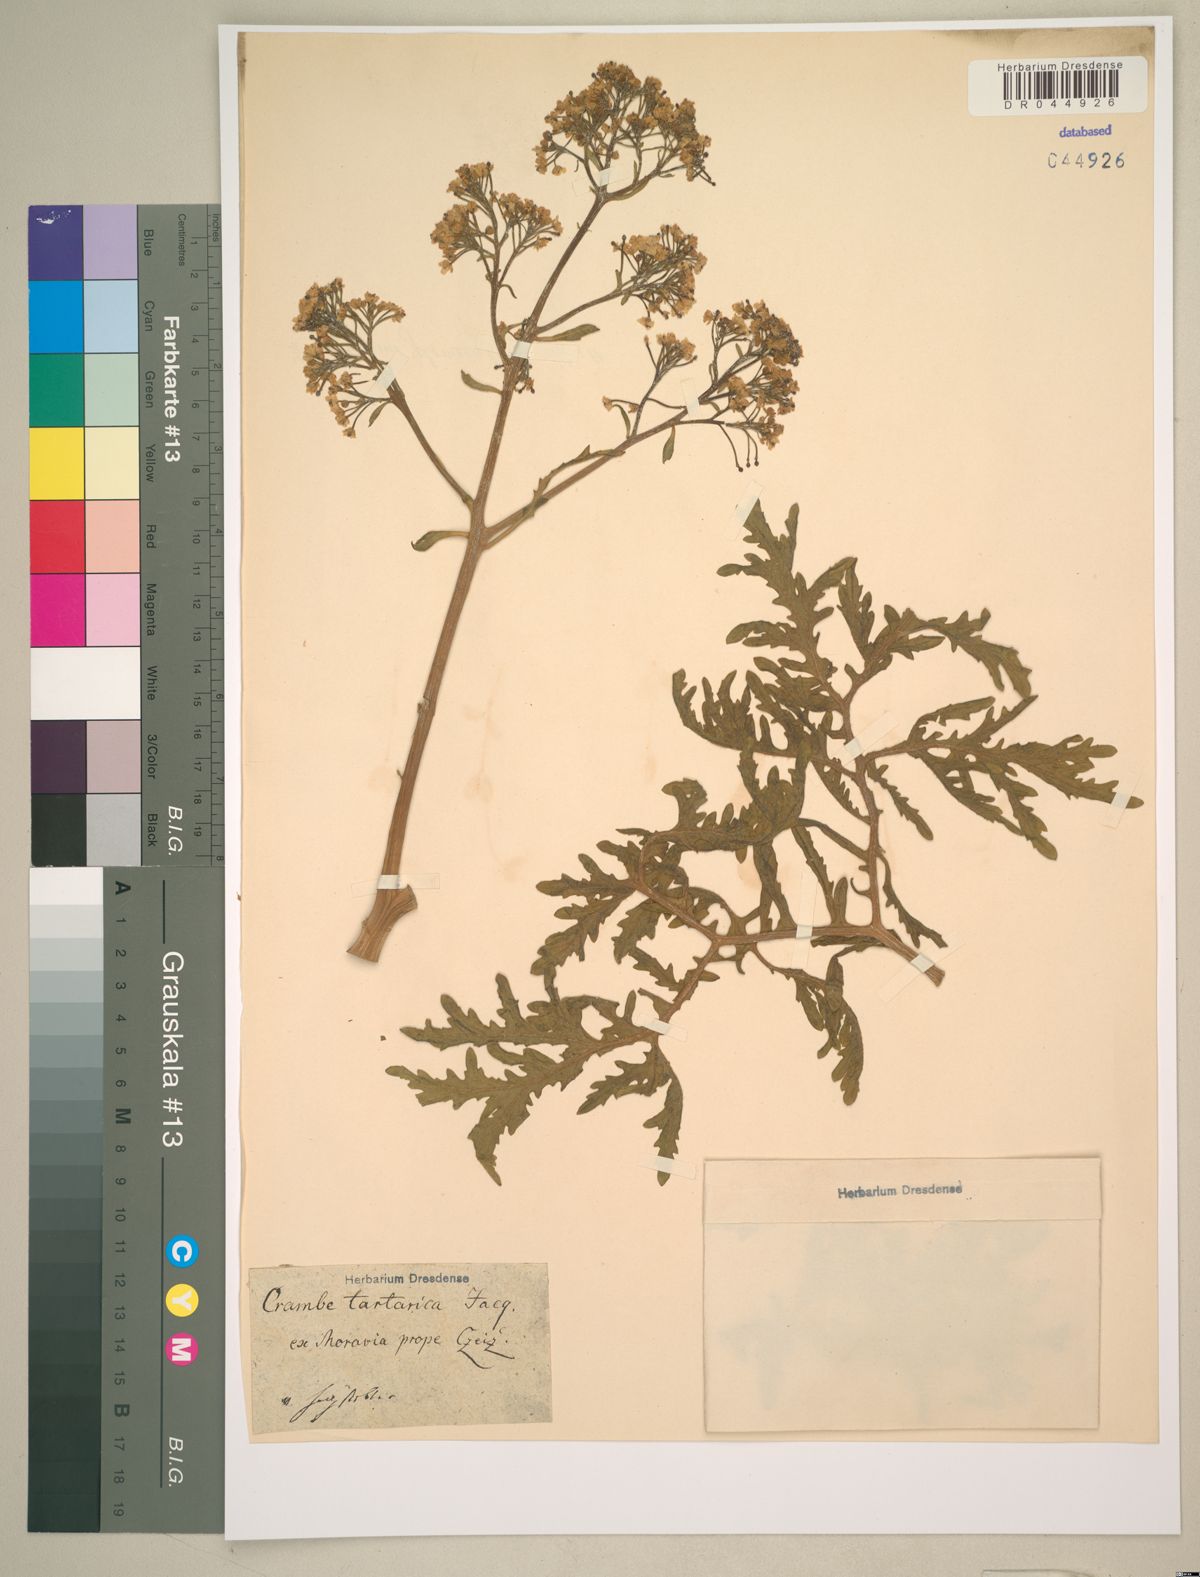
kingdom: Plantae
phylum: Tracheophyta
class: Magnoliopsida
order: Brassicales
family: Brassicaceae
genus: Crambe
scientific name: Crambe tataria
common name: Tartarian breadplant
